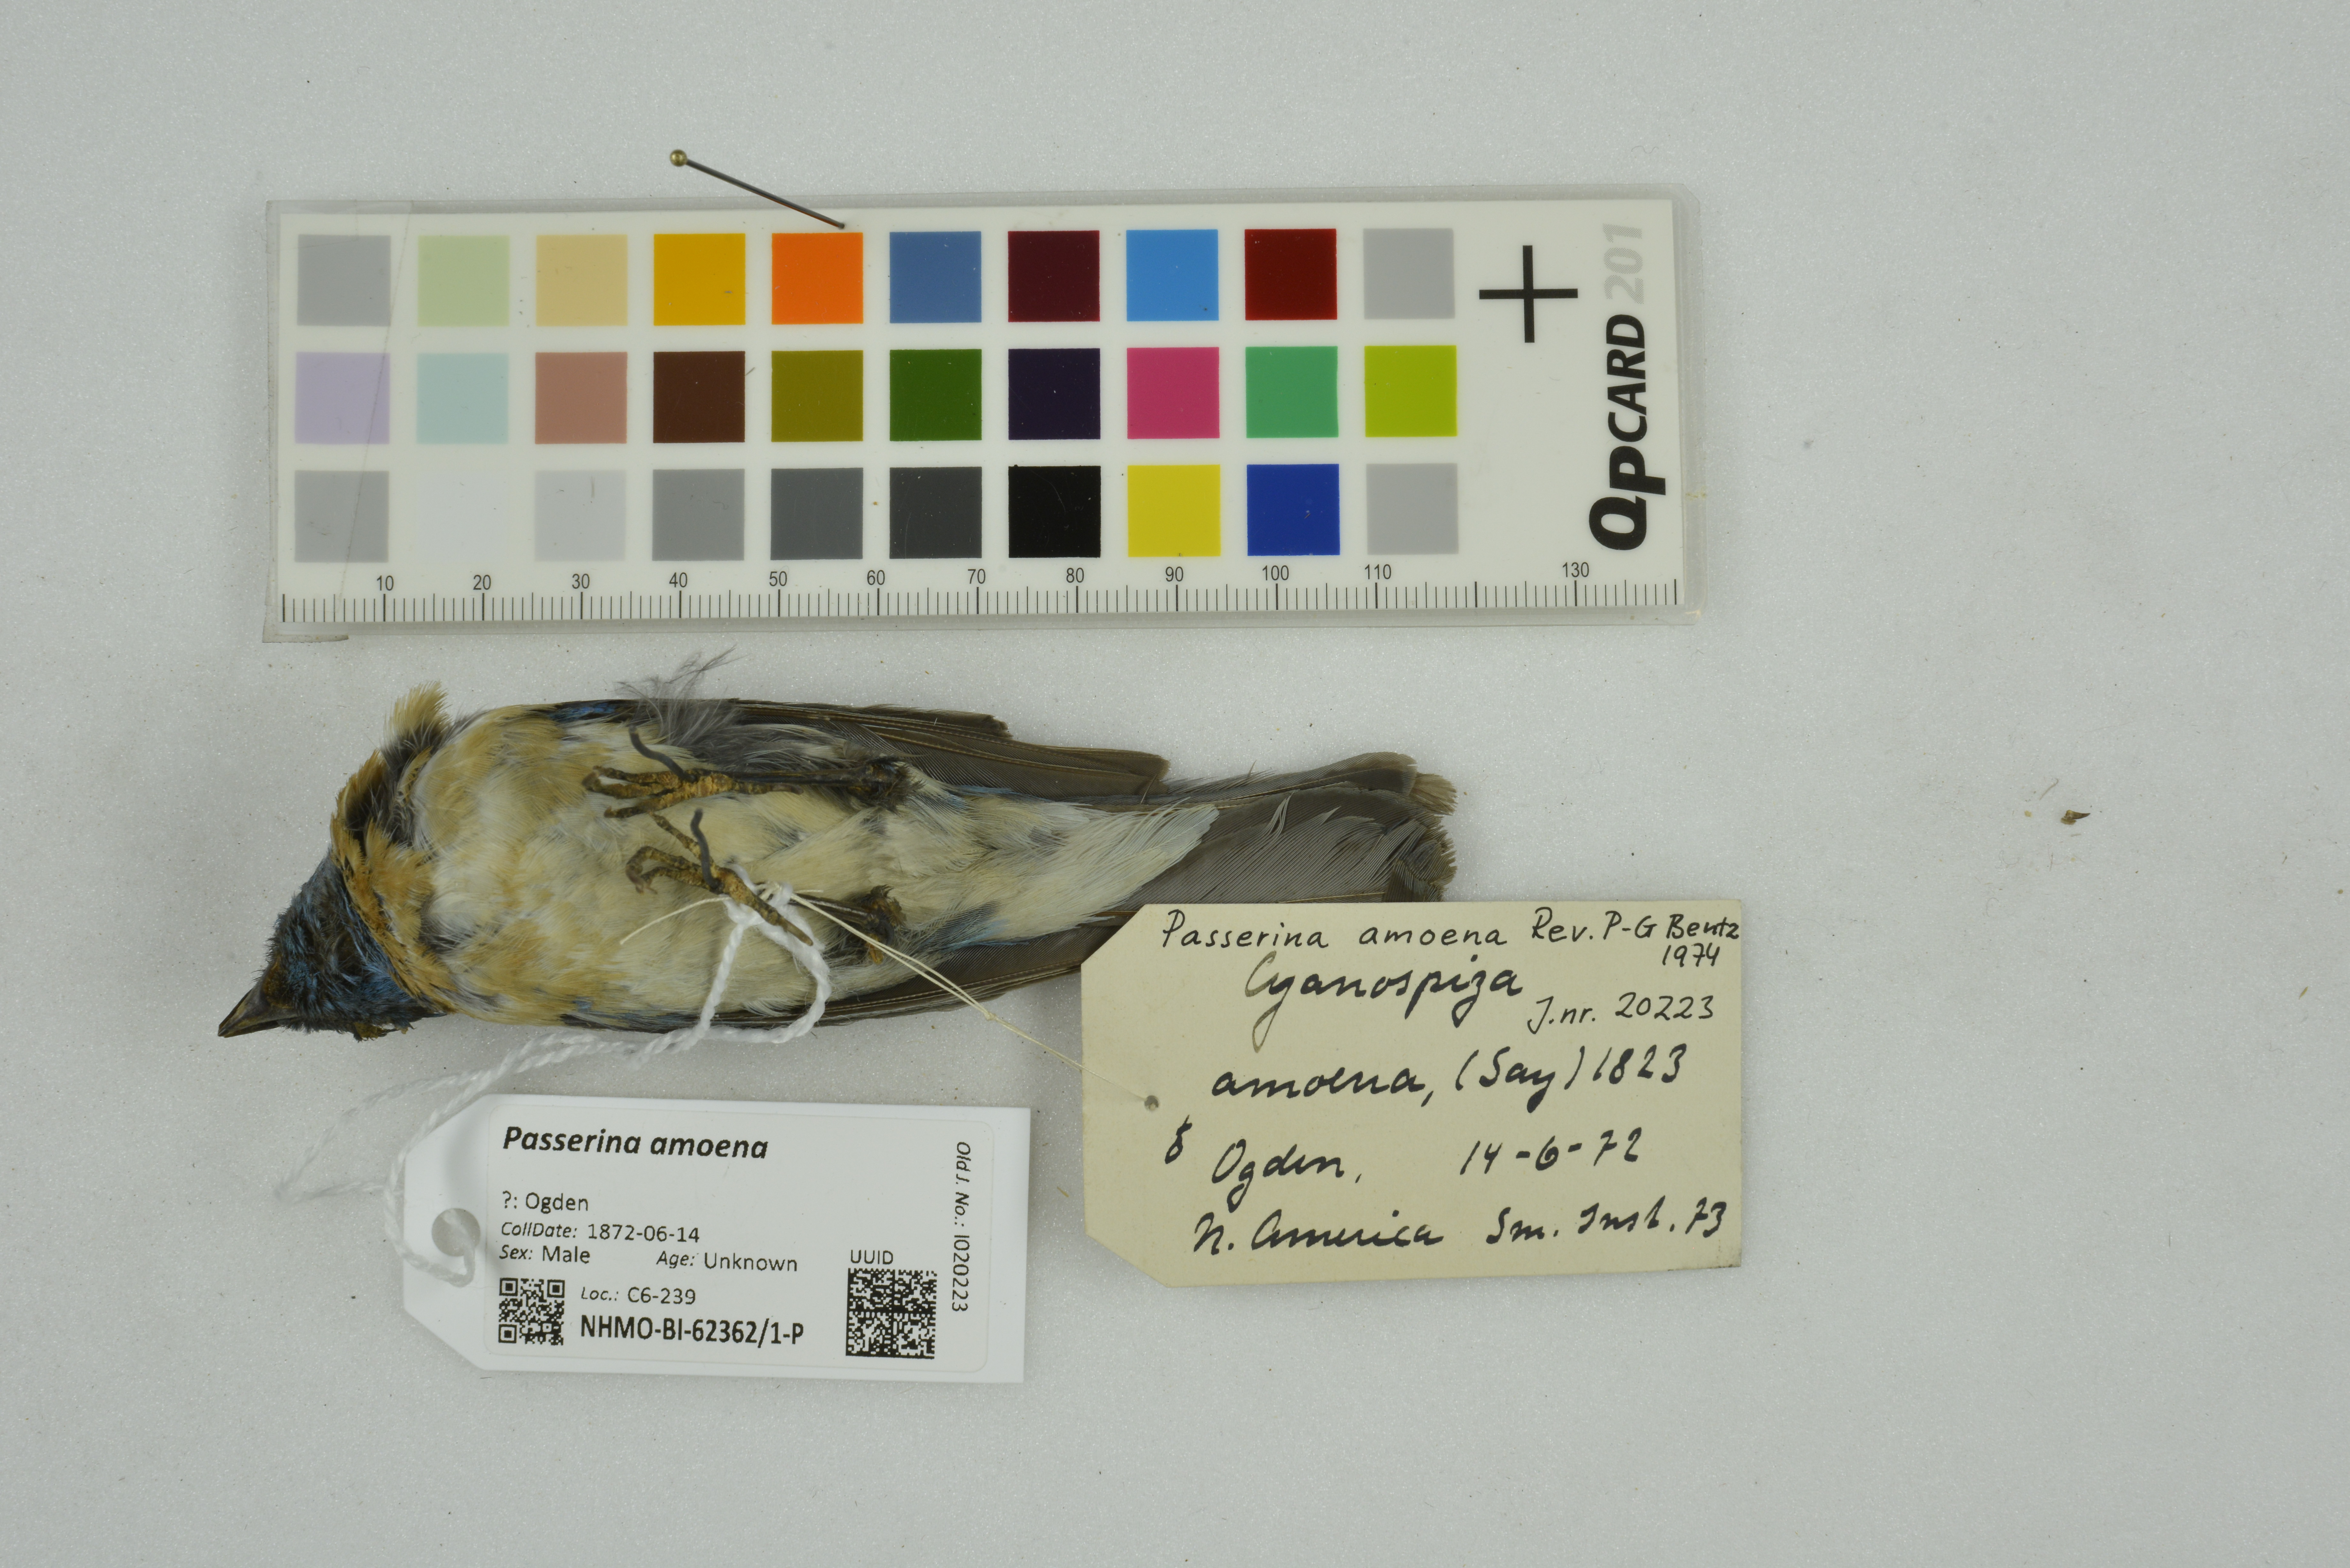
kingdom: Animalia
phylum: Chordata
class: Aves
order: Passeriformes
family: Cardinalidae
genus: Passerina
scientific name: Passerina amoena
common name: Lazuli bunting
